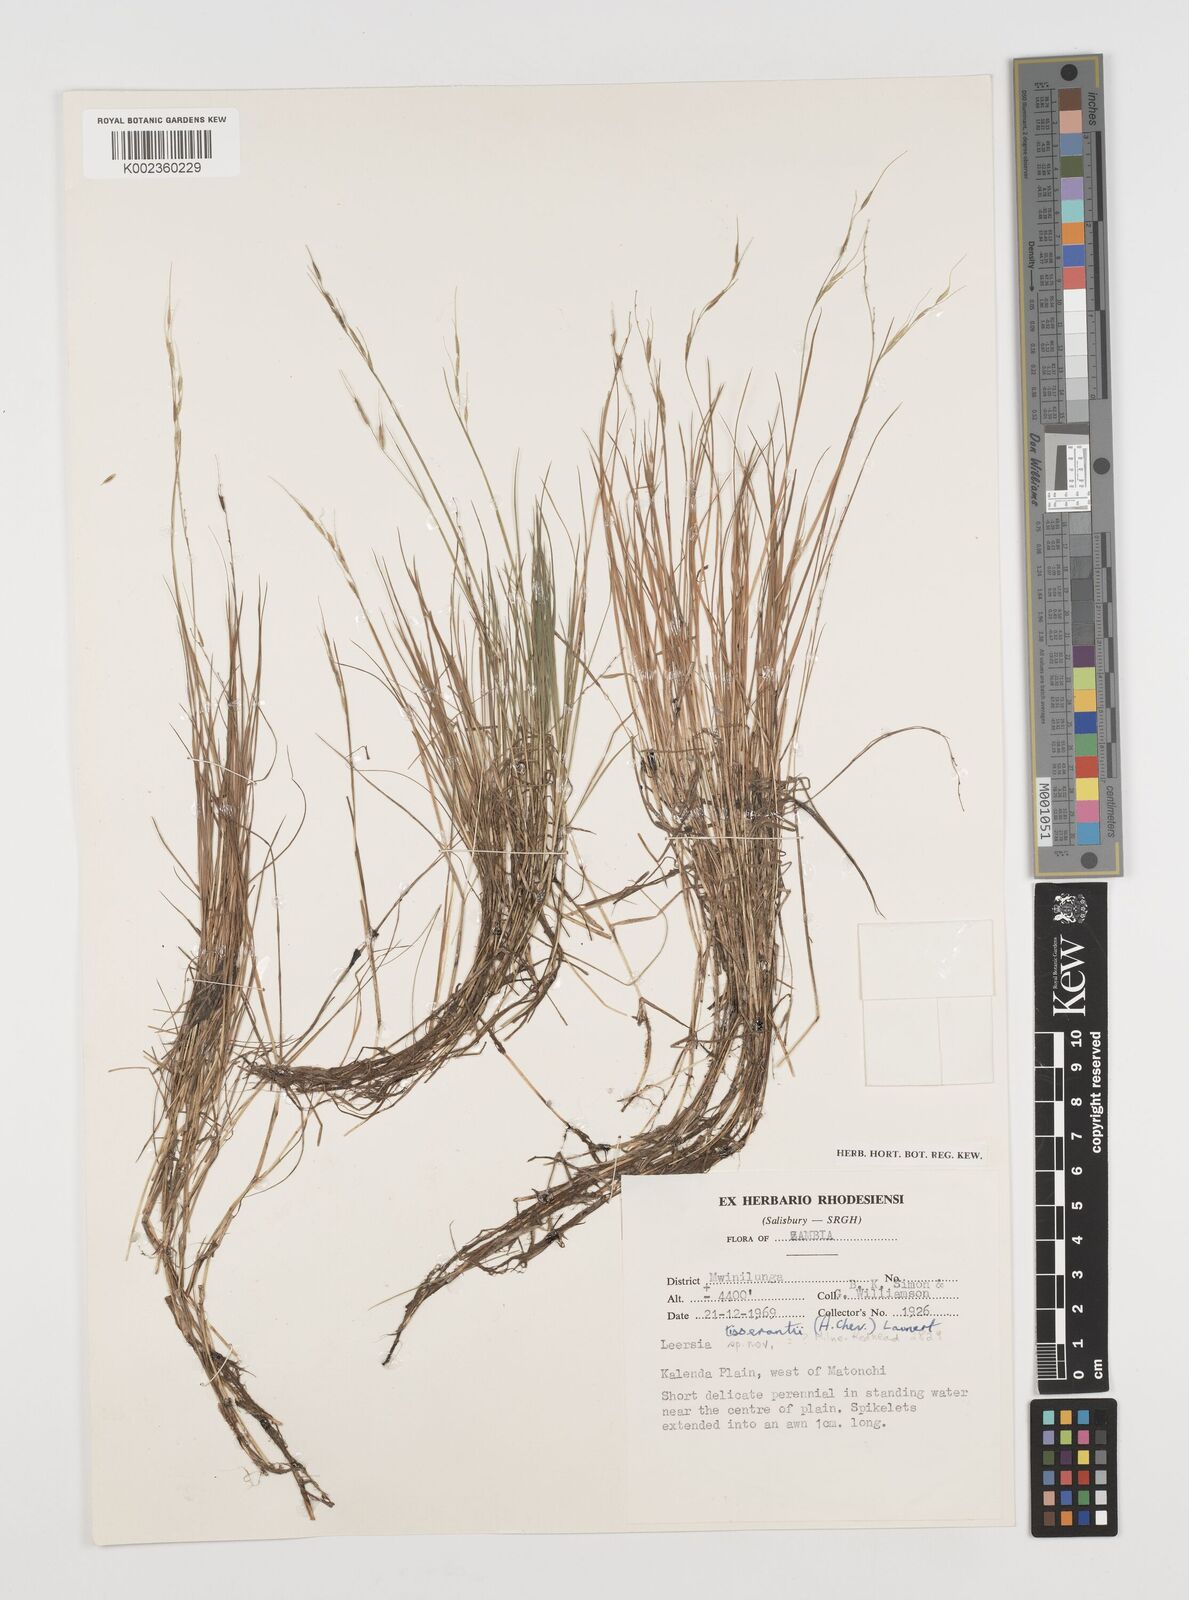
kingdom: Plantae
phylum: Tracheophyta
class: Liliopsida
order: Poales
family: Poaceae
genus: Leersia
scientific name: Leersia tisserantii
